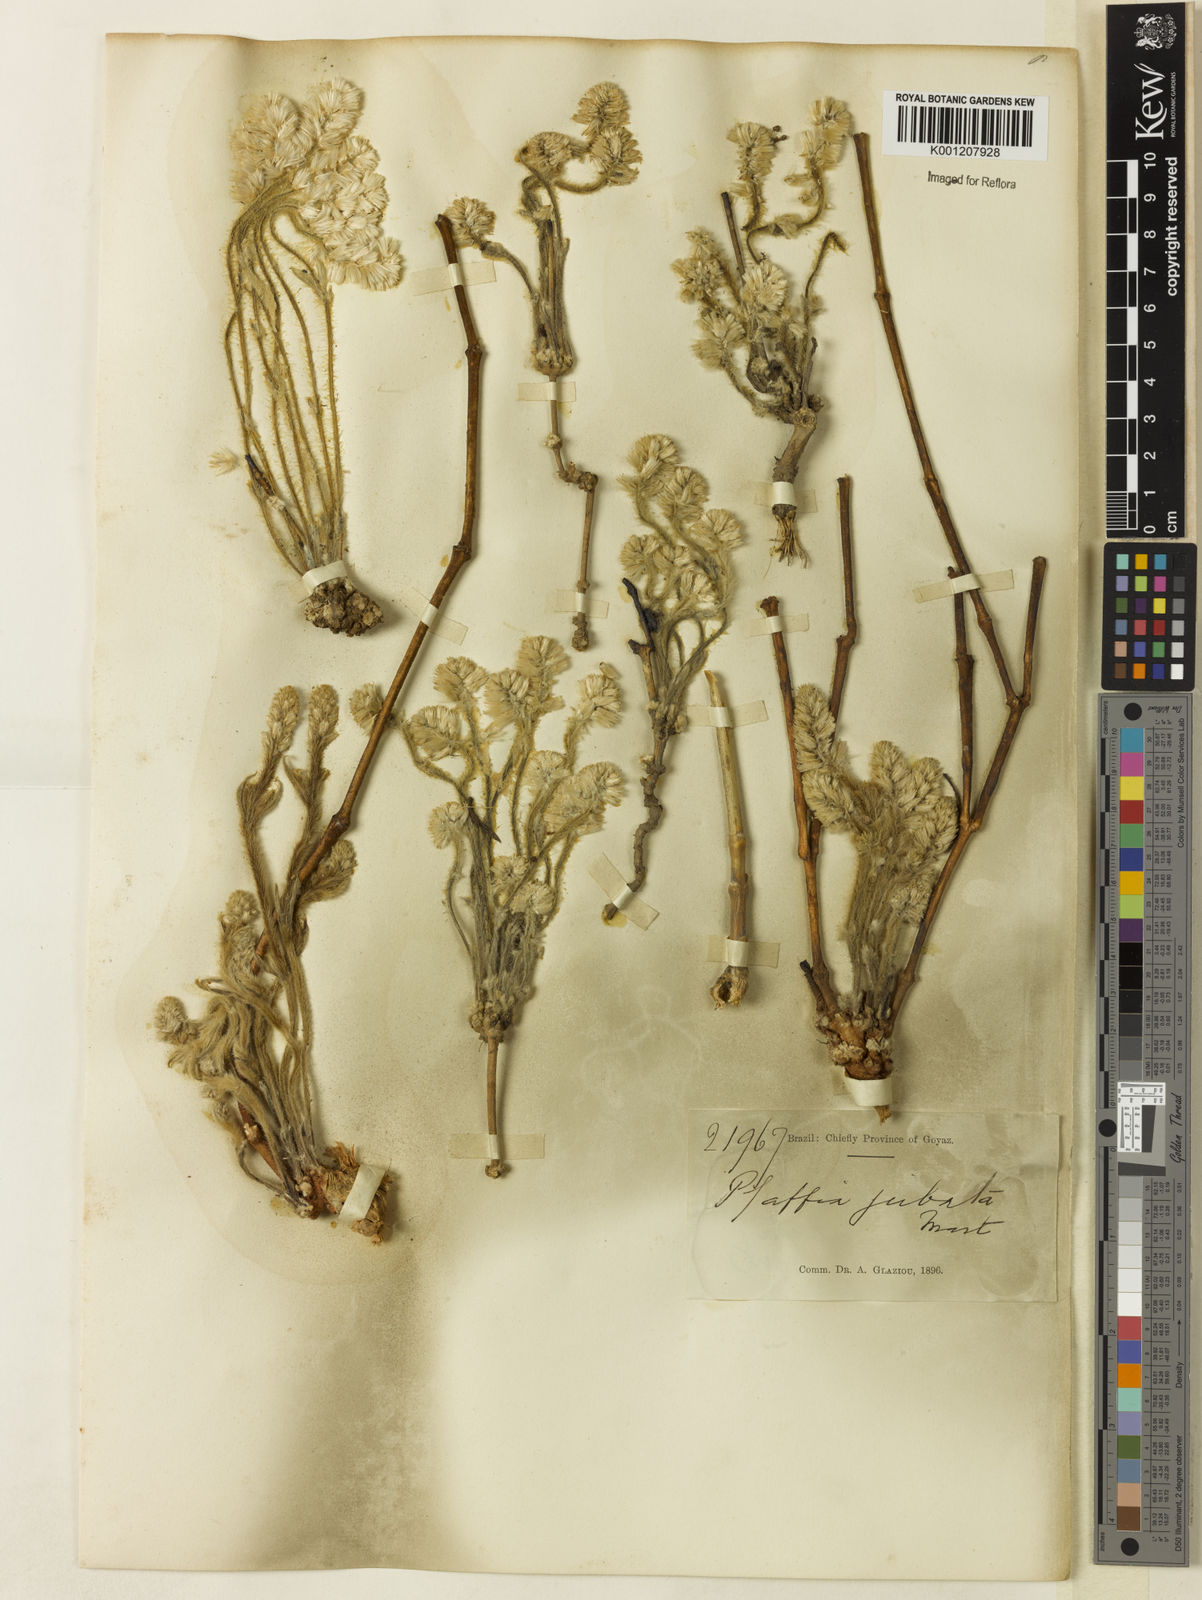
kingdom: Plantae
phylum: Tracheophyta
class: Magnoliopsida
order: Caryophyllales
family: Amaranthaceae
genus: Pfaffia
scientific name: Pfaffia jubata
